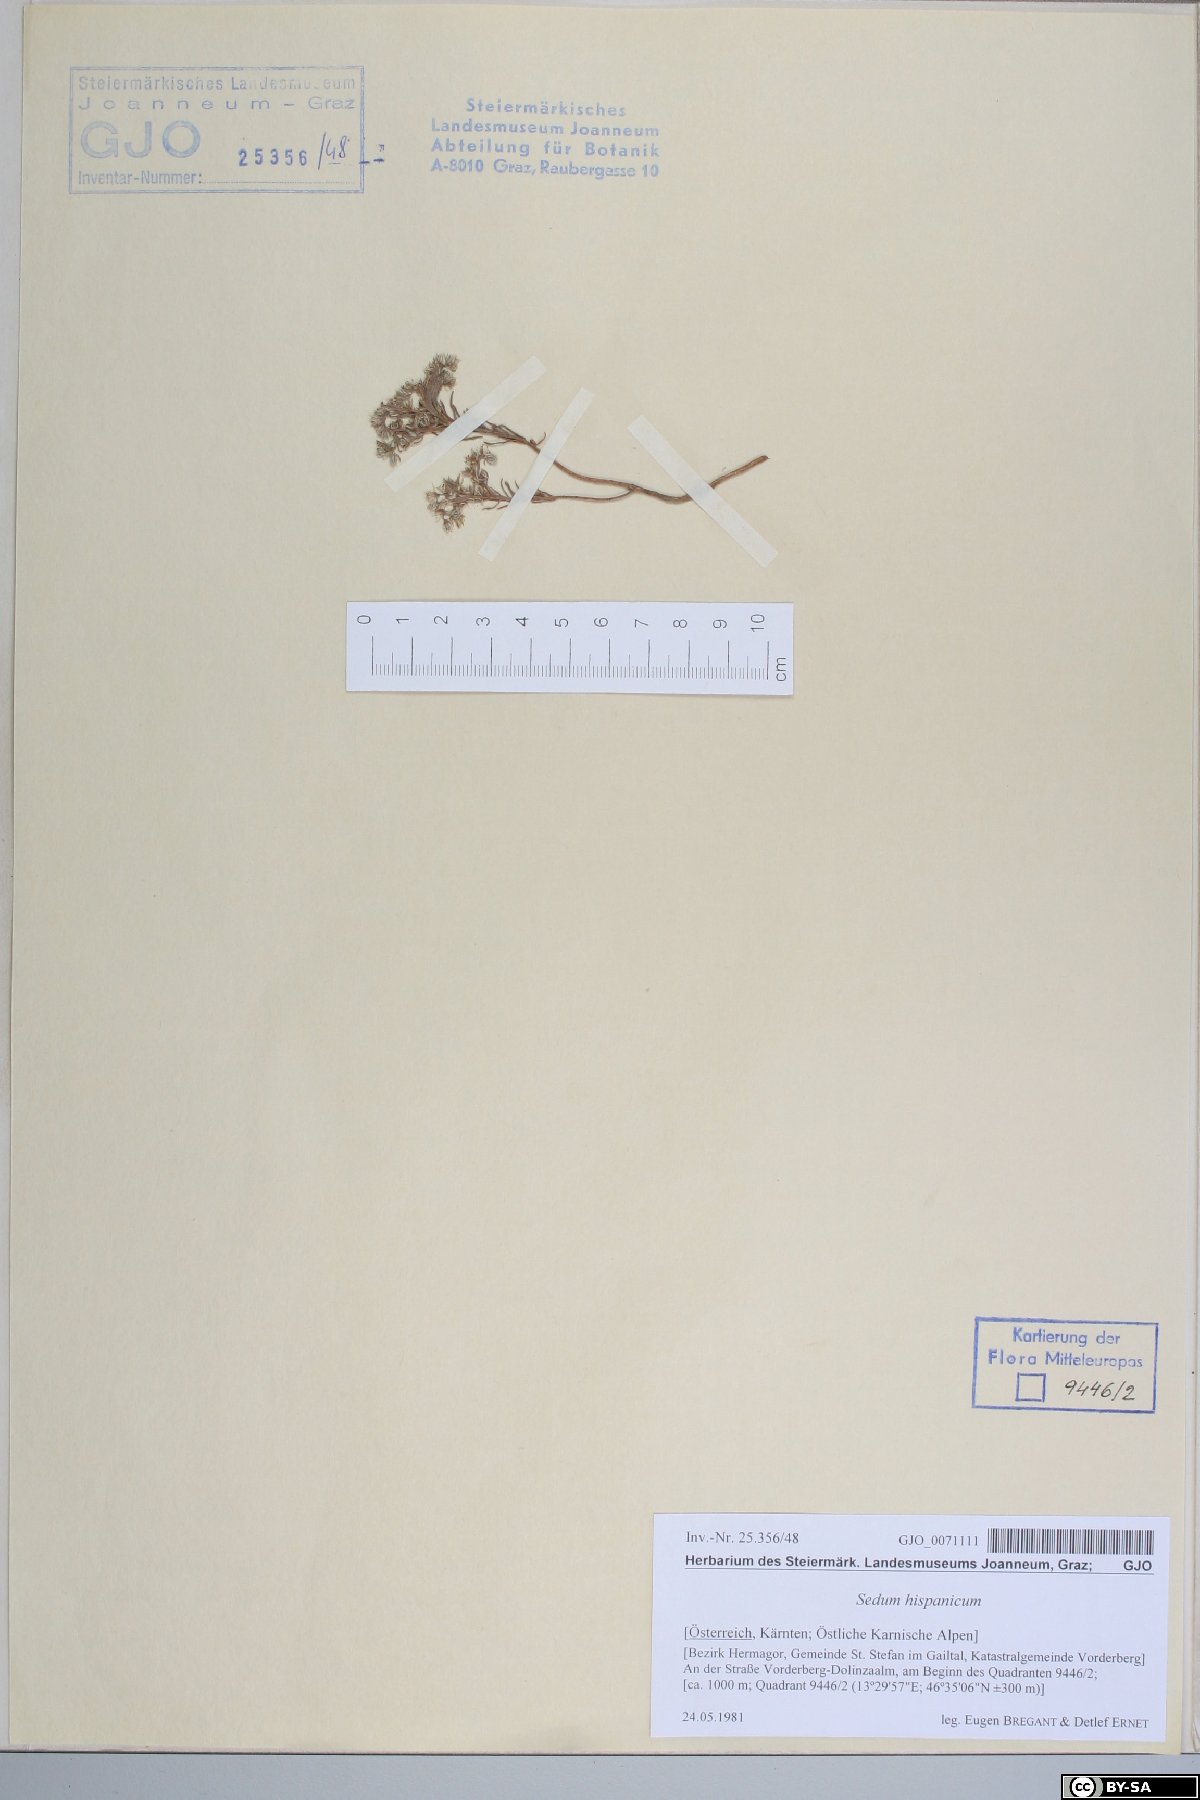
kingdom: Plantae
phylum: Tracheophyta
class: Magnoliopsida
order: Saxifragales
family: Crassulaceae
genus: Sedum
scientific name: Sedum hispanicum
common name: Spanish stonecrop
